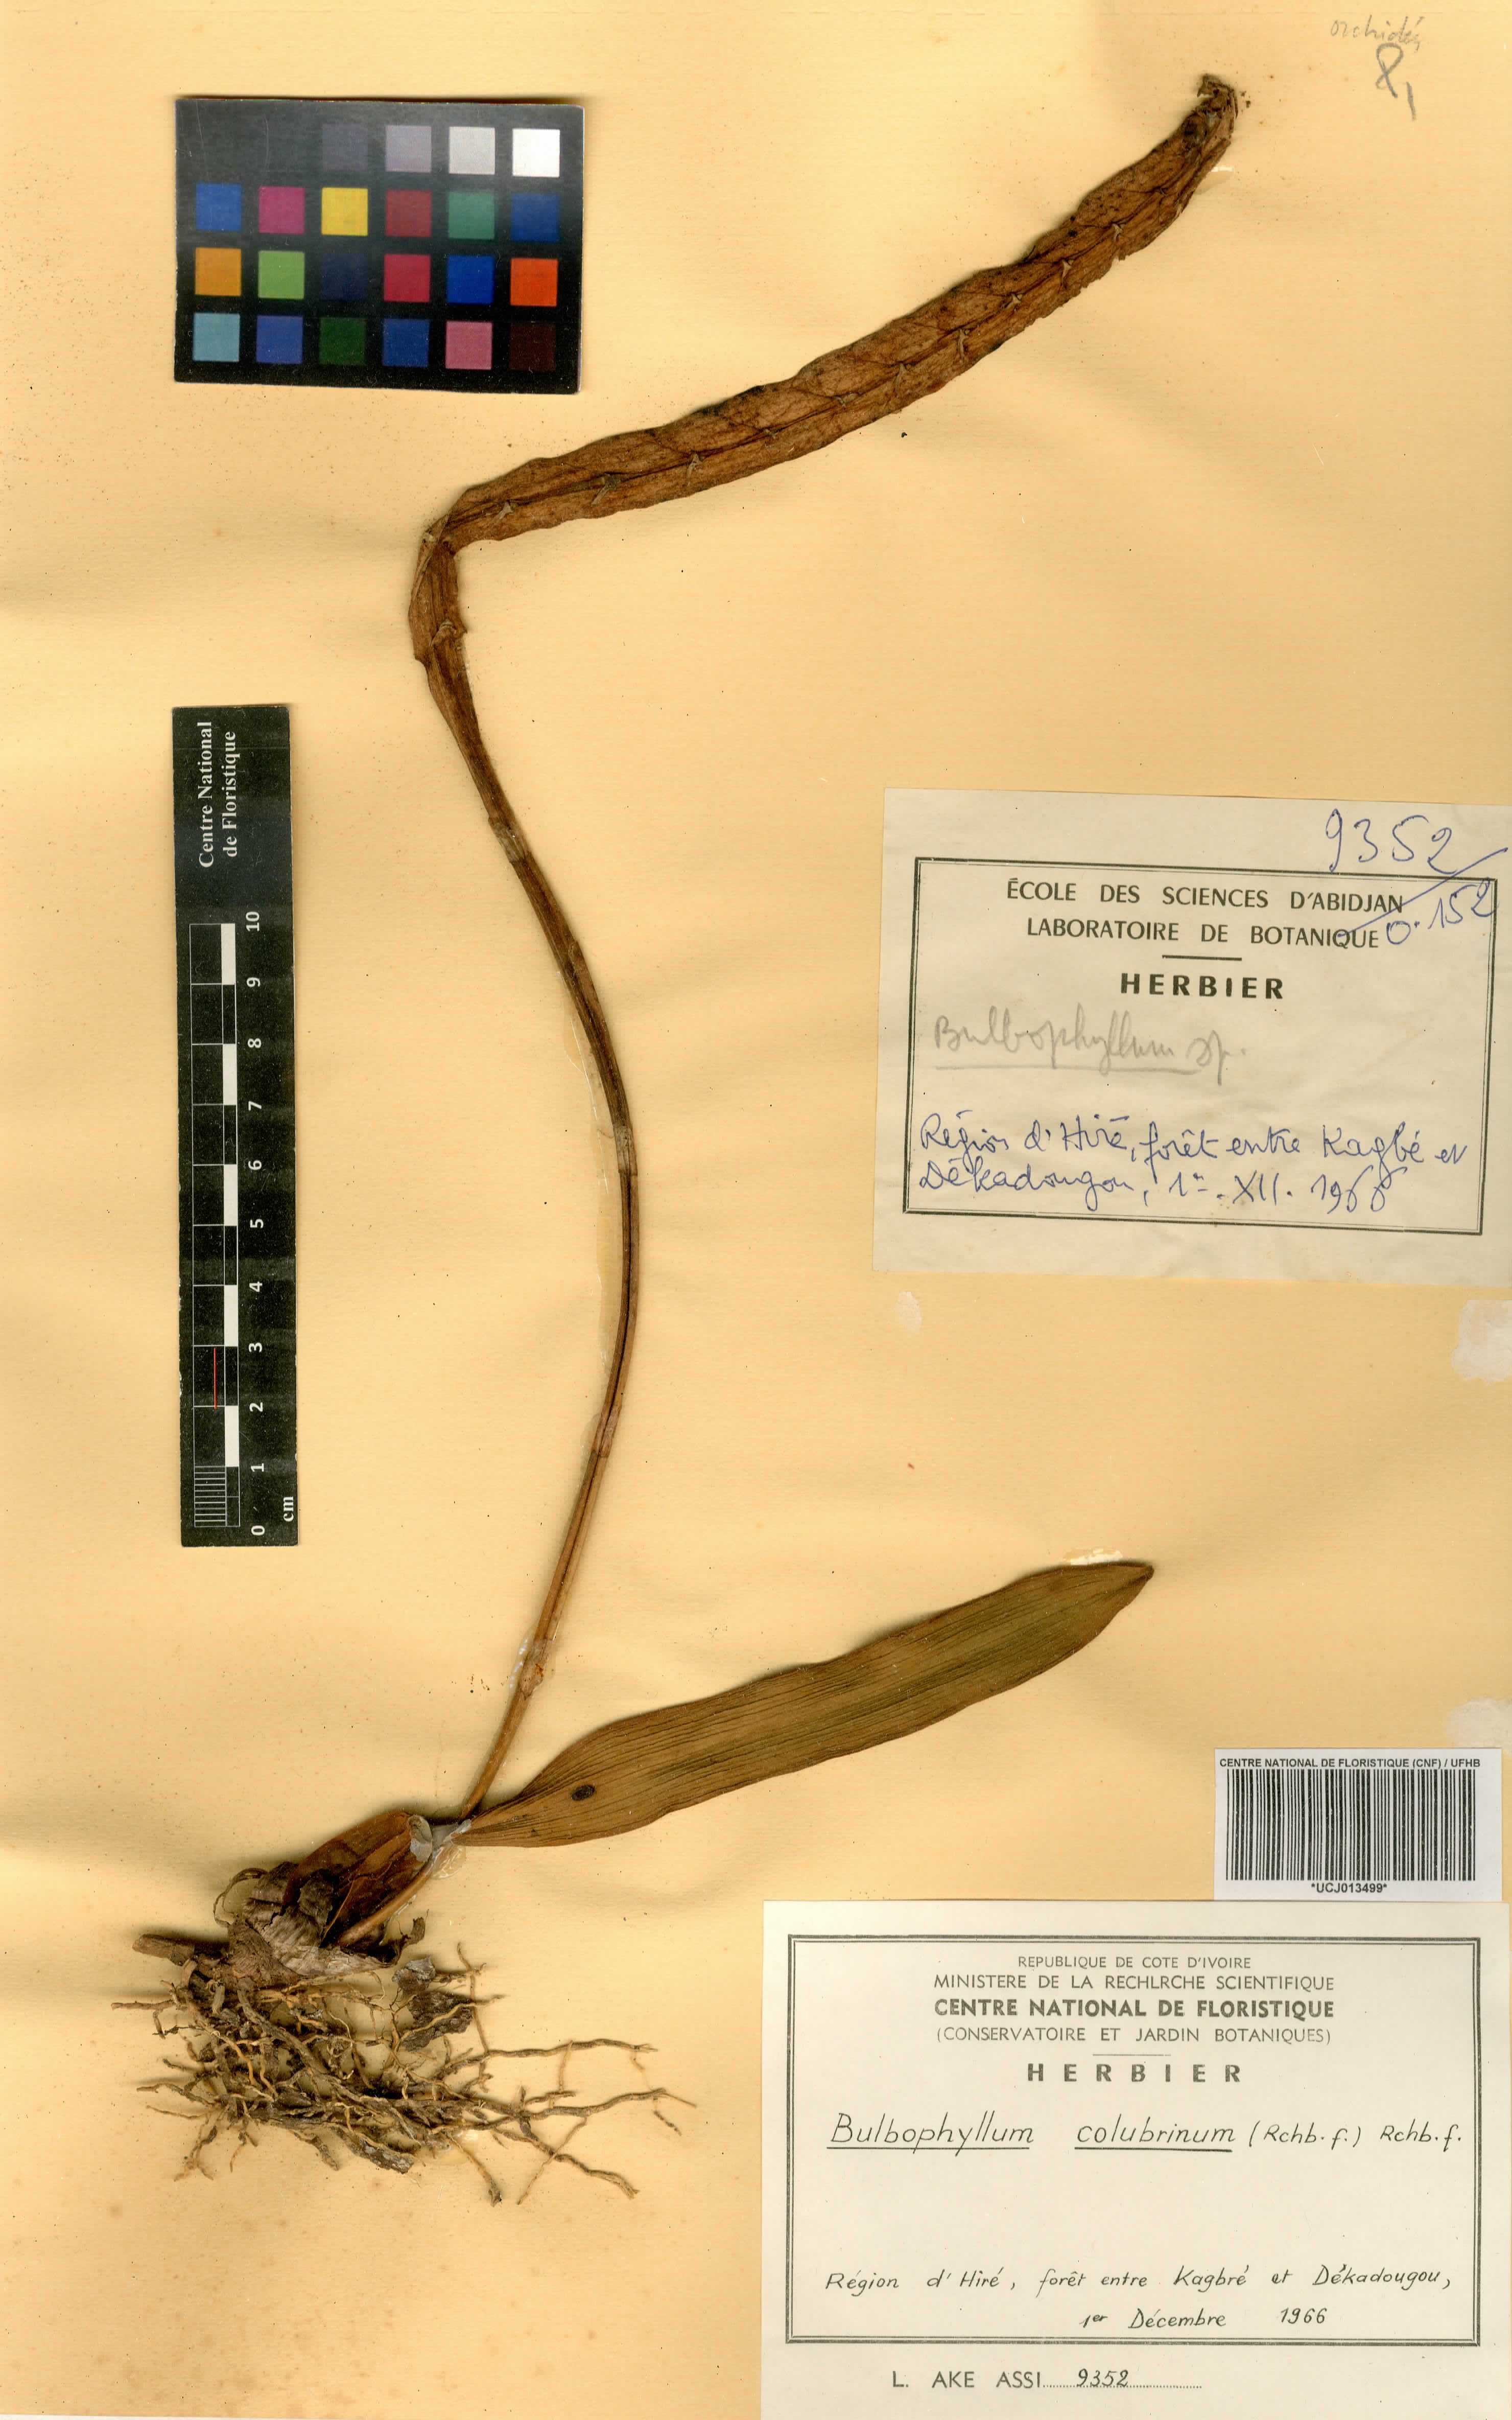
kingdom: Plantae
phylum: Tracheophyta
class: Liliopsida
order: Asparagales
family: Orchidaceae
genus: Bulbophyllum
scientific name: Bulbophyllum colubrinum
